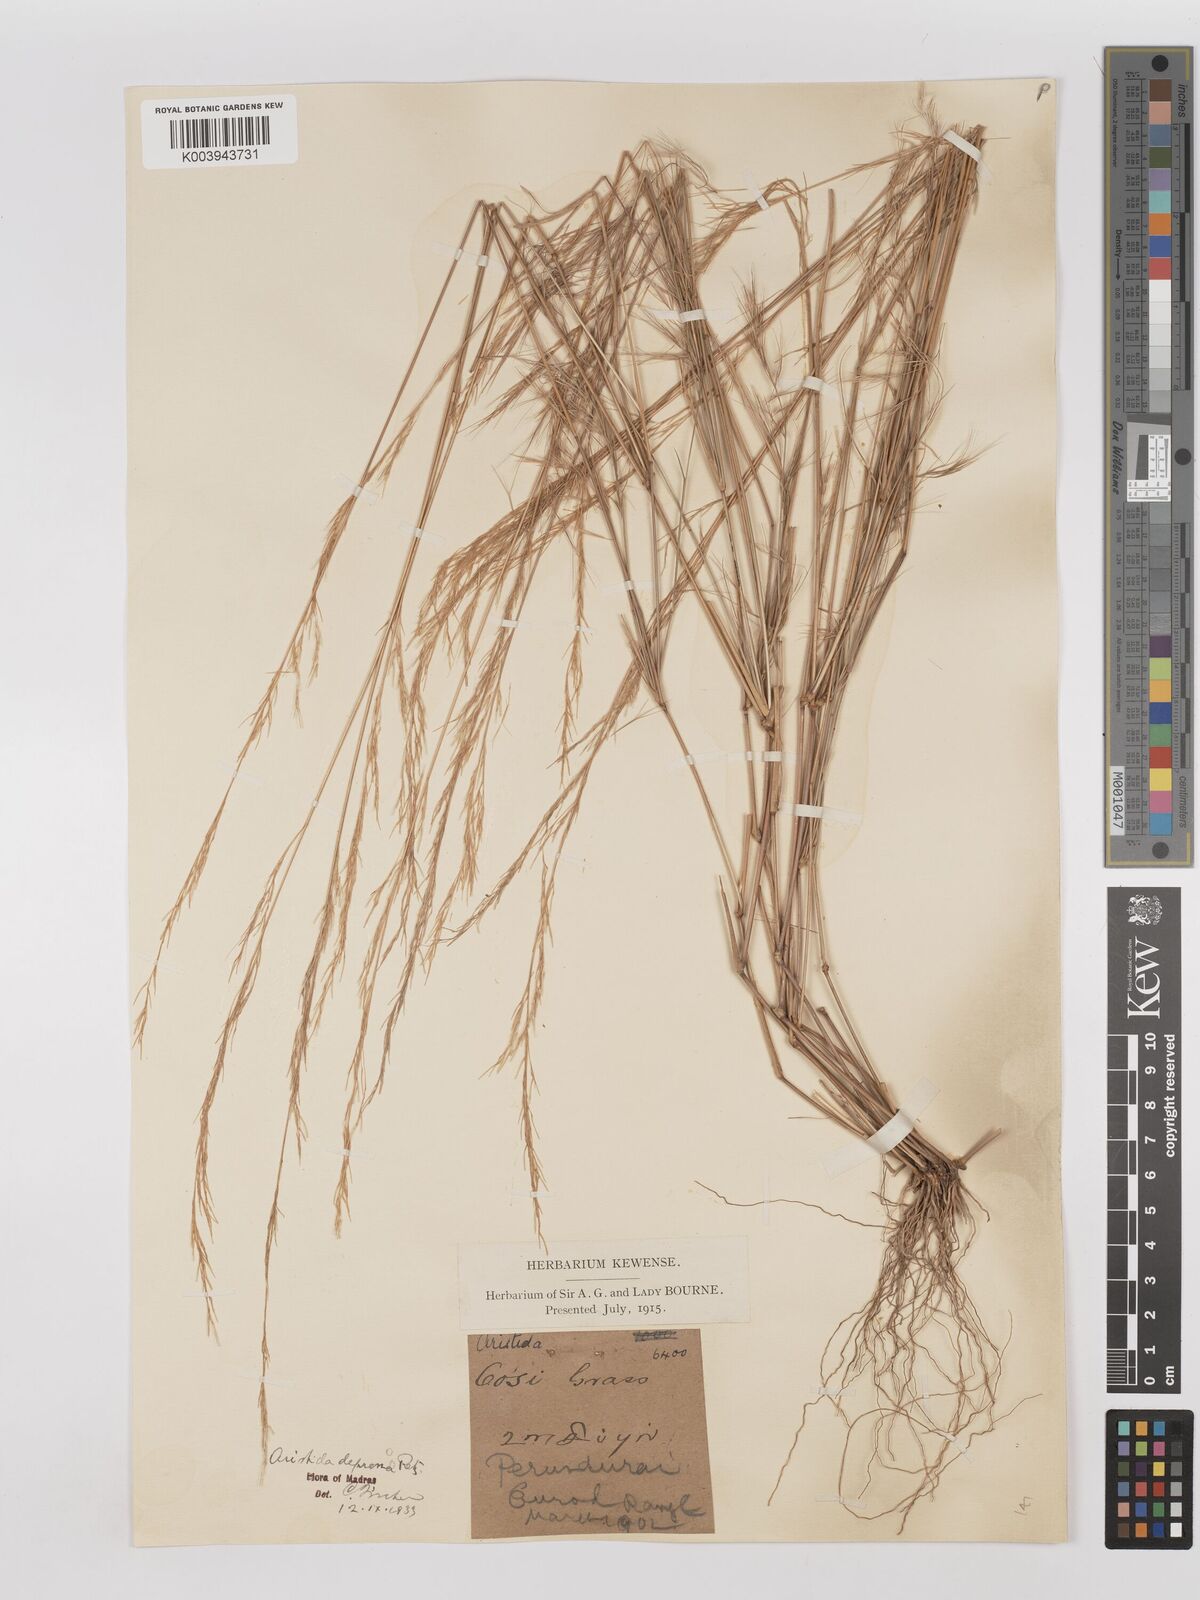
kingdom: Plantae
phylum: Tracheophyta
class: Liliopsida
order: Poales
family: Poaceae
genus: Aristida
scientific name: Aristida adscensionis
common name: Sixweeks threeawn
